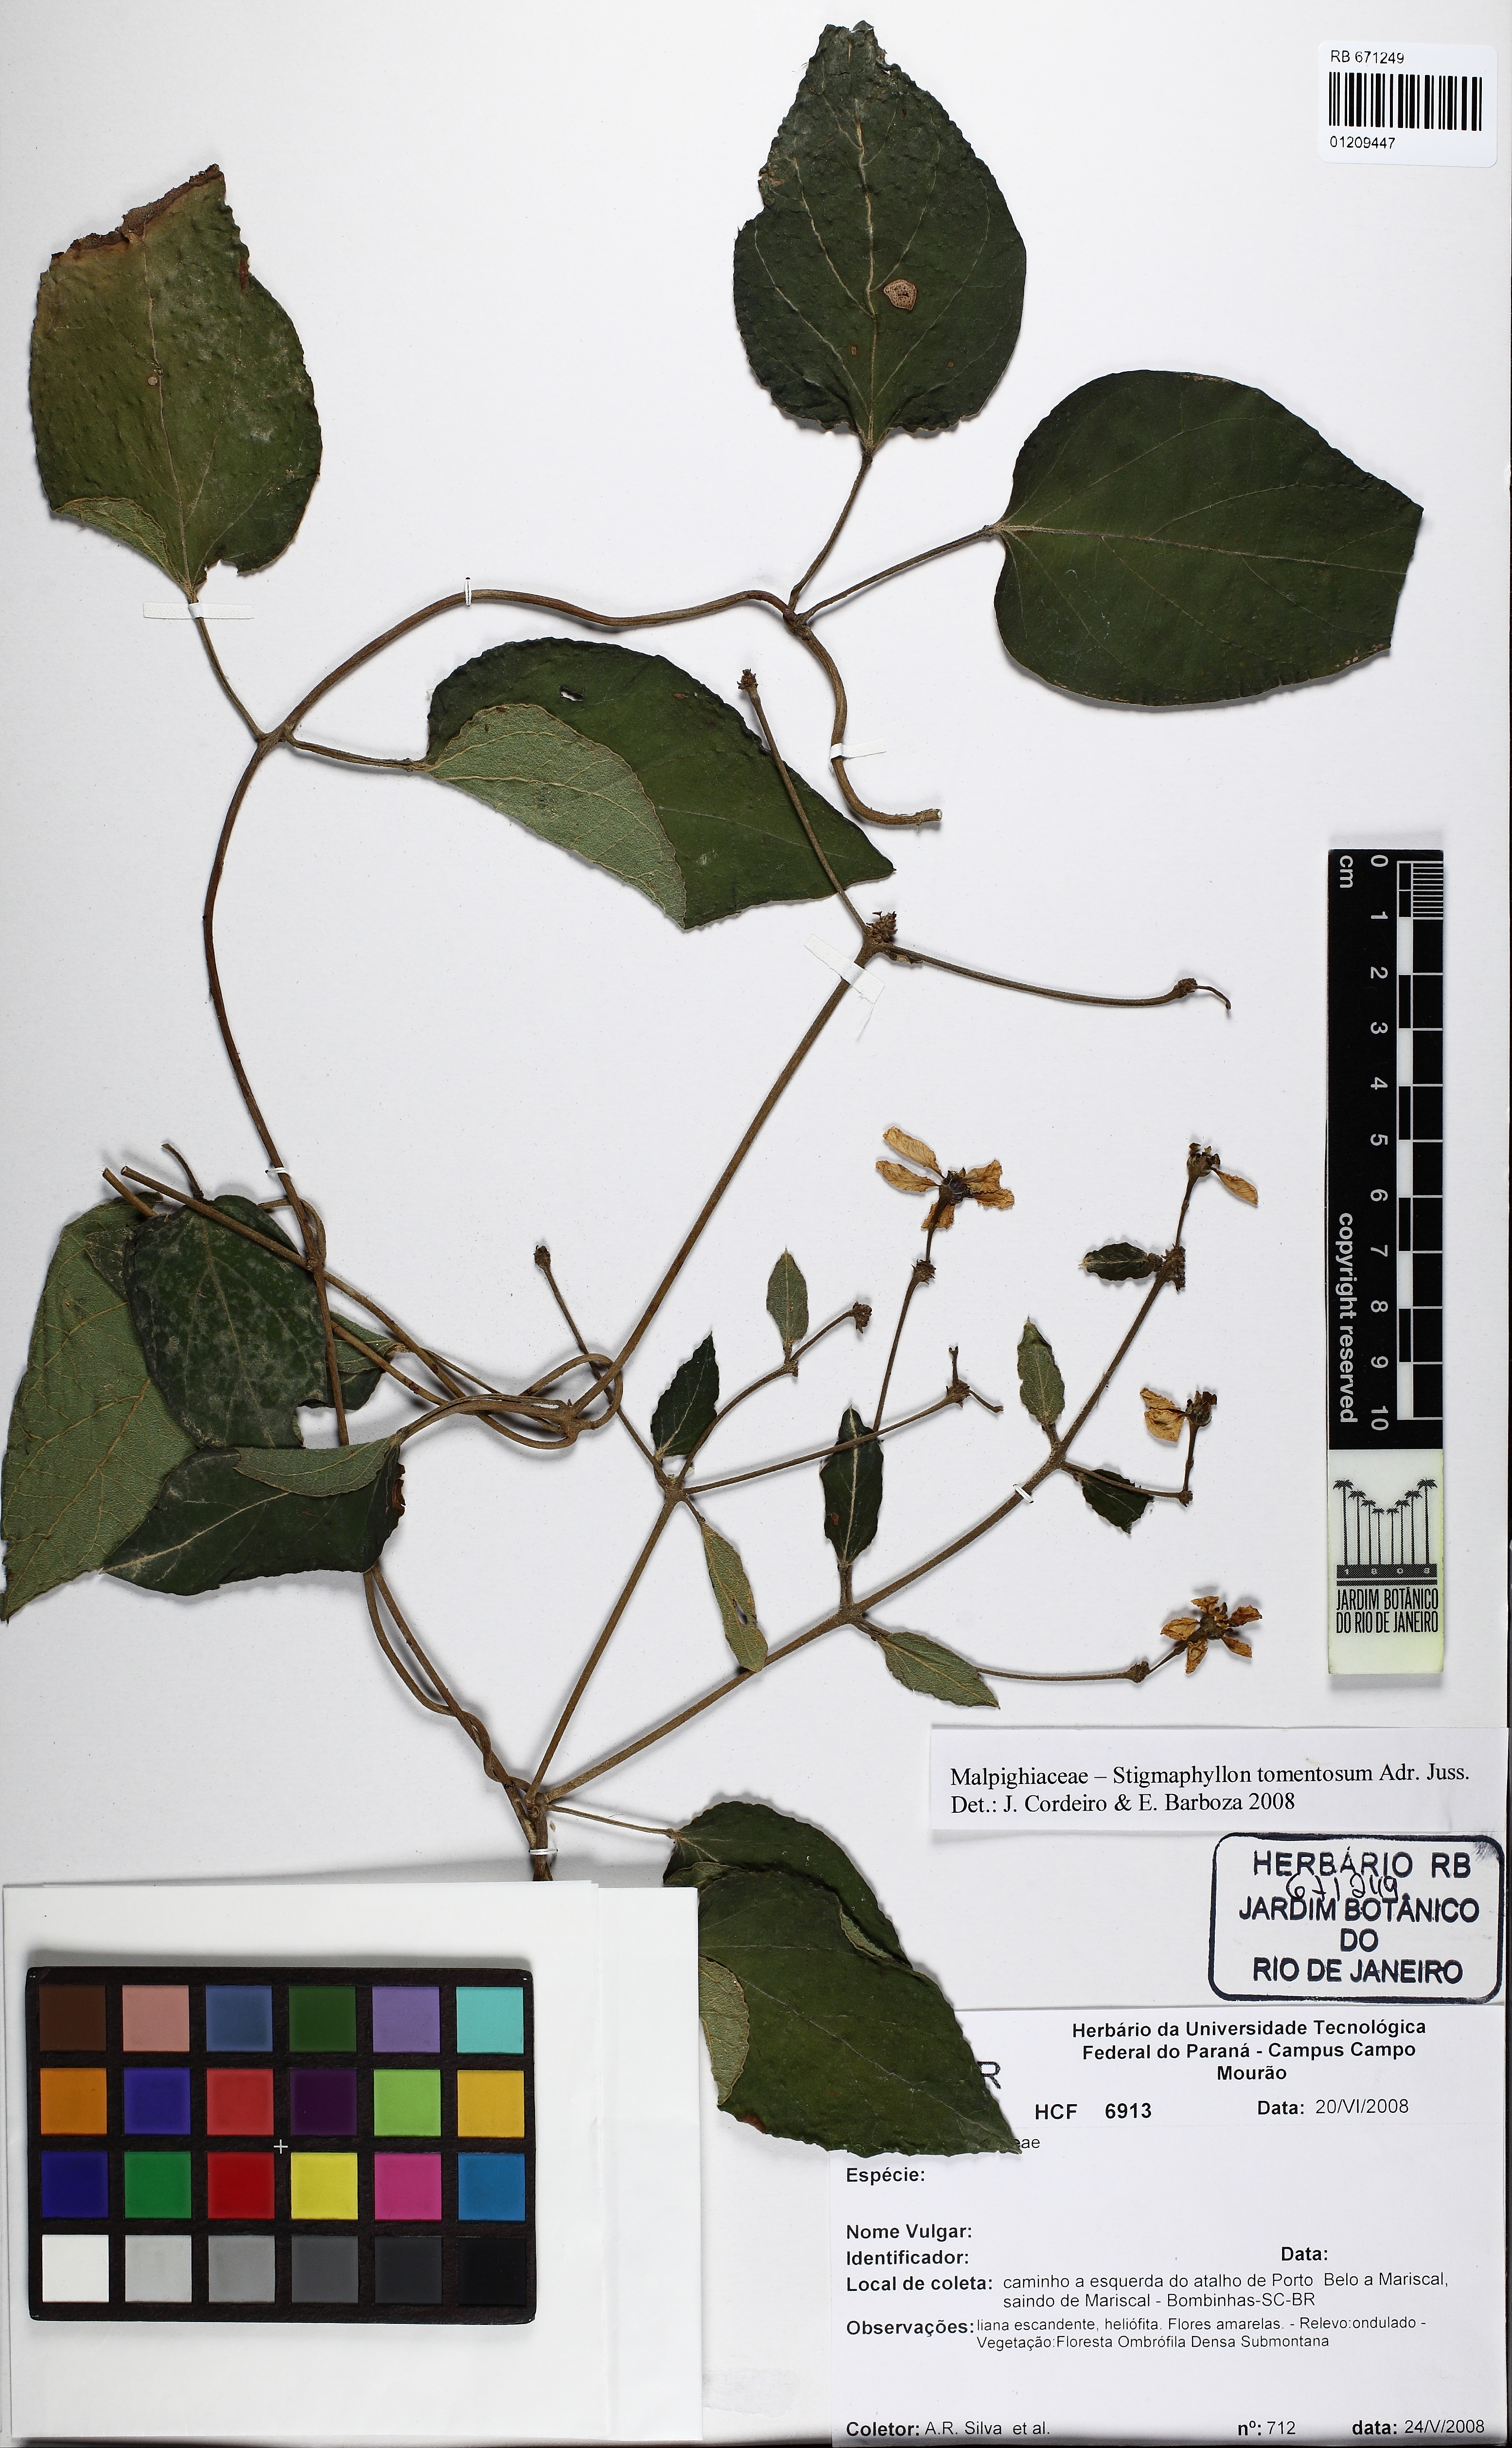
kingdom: Plantae
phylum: Tracheophyta
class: Magnoliopsida
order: Malpighiales
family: Malpighiaceae
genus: Stigmaphyllon
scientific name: Stigmaphyllon tomentosum
